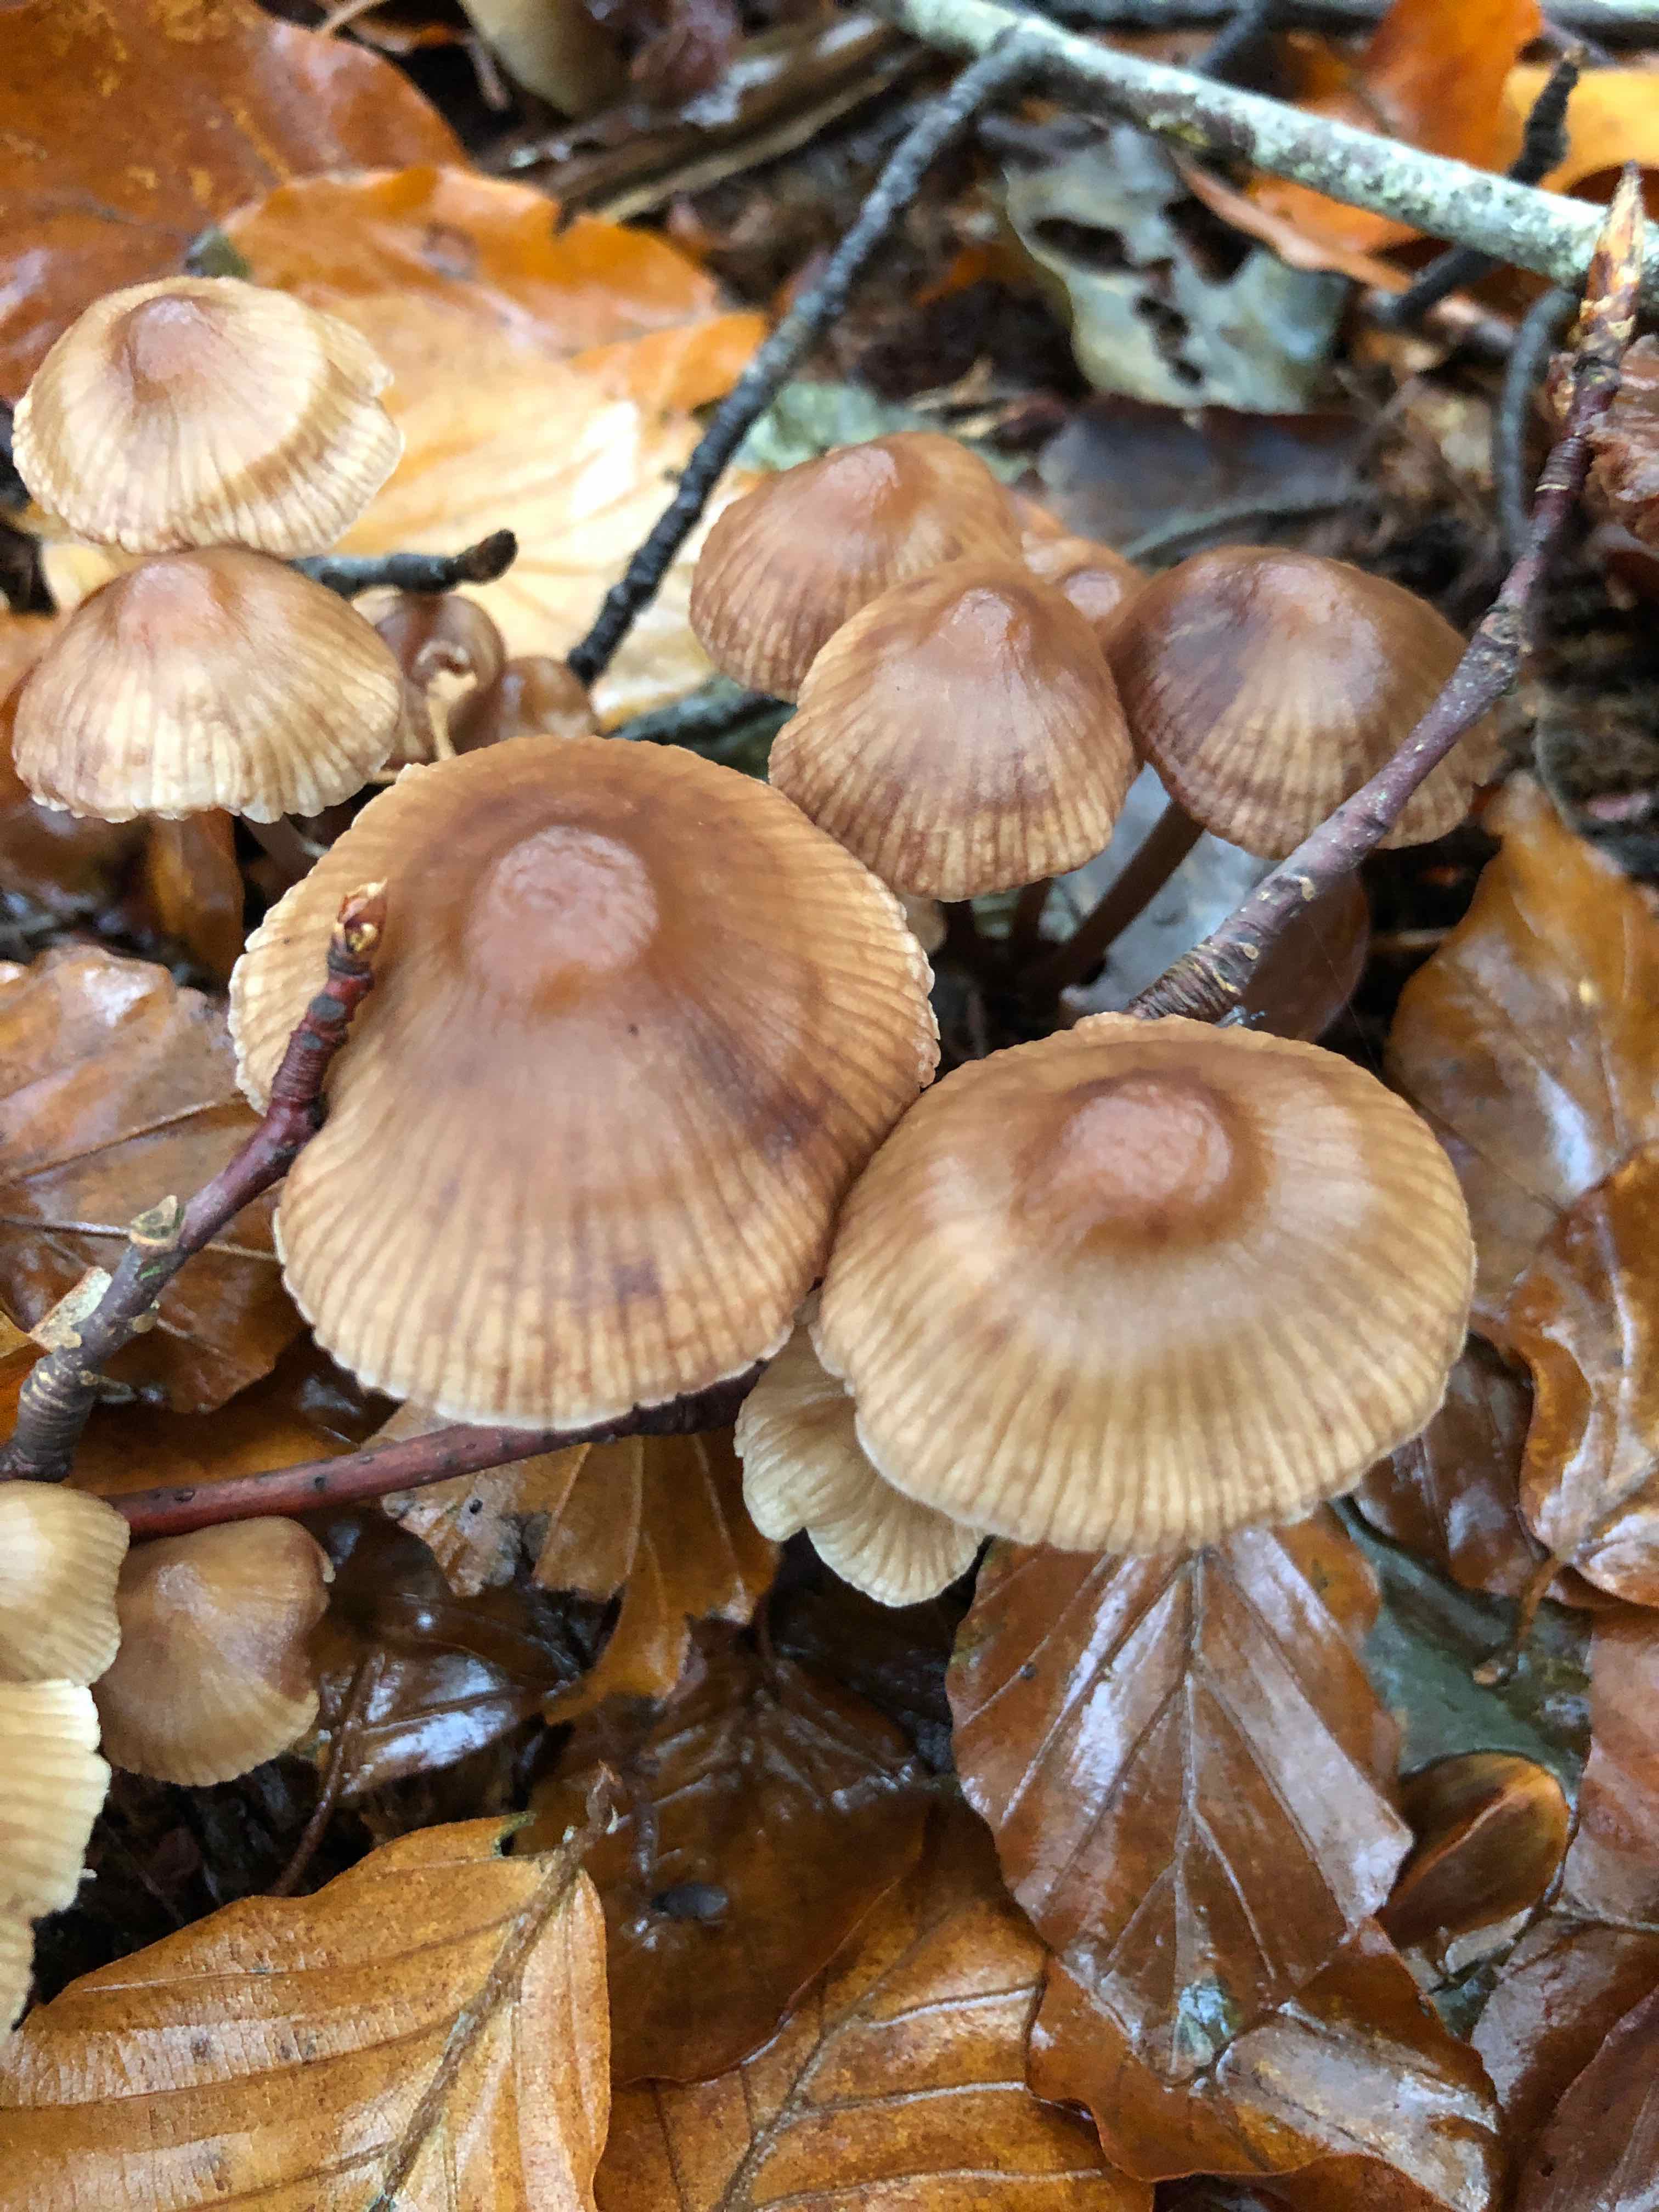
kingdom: Fungi
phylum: Basidiomycota
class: Agaricomycetes
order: Agaricales
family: Mycenaceae
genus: Mycena
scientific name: Mycena
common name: huesvamp
